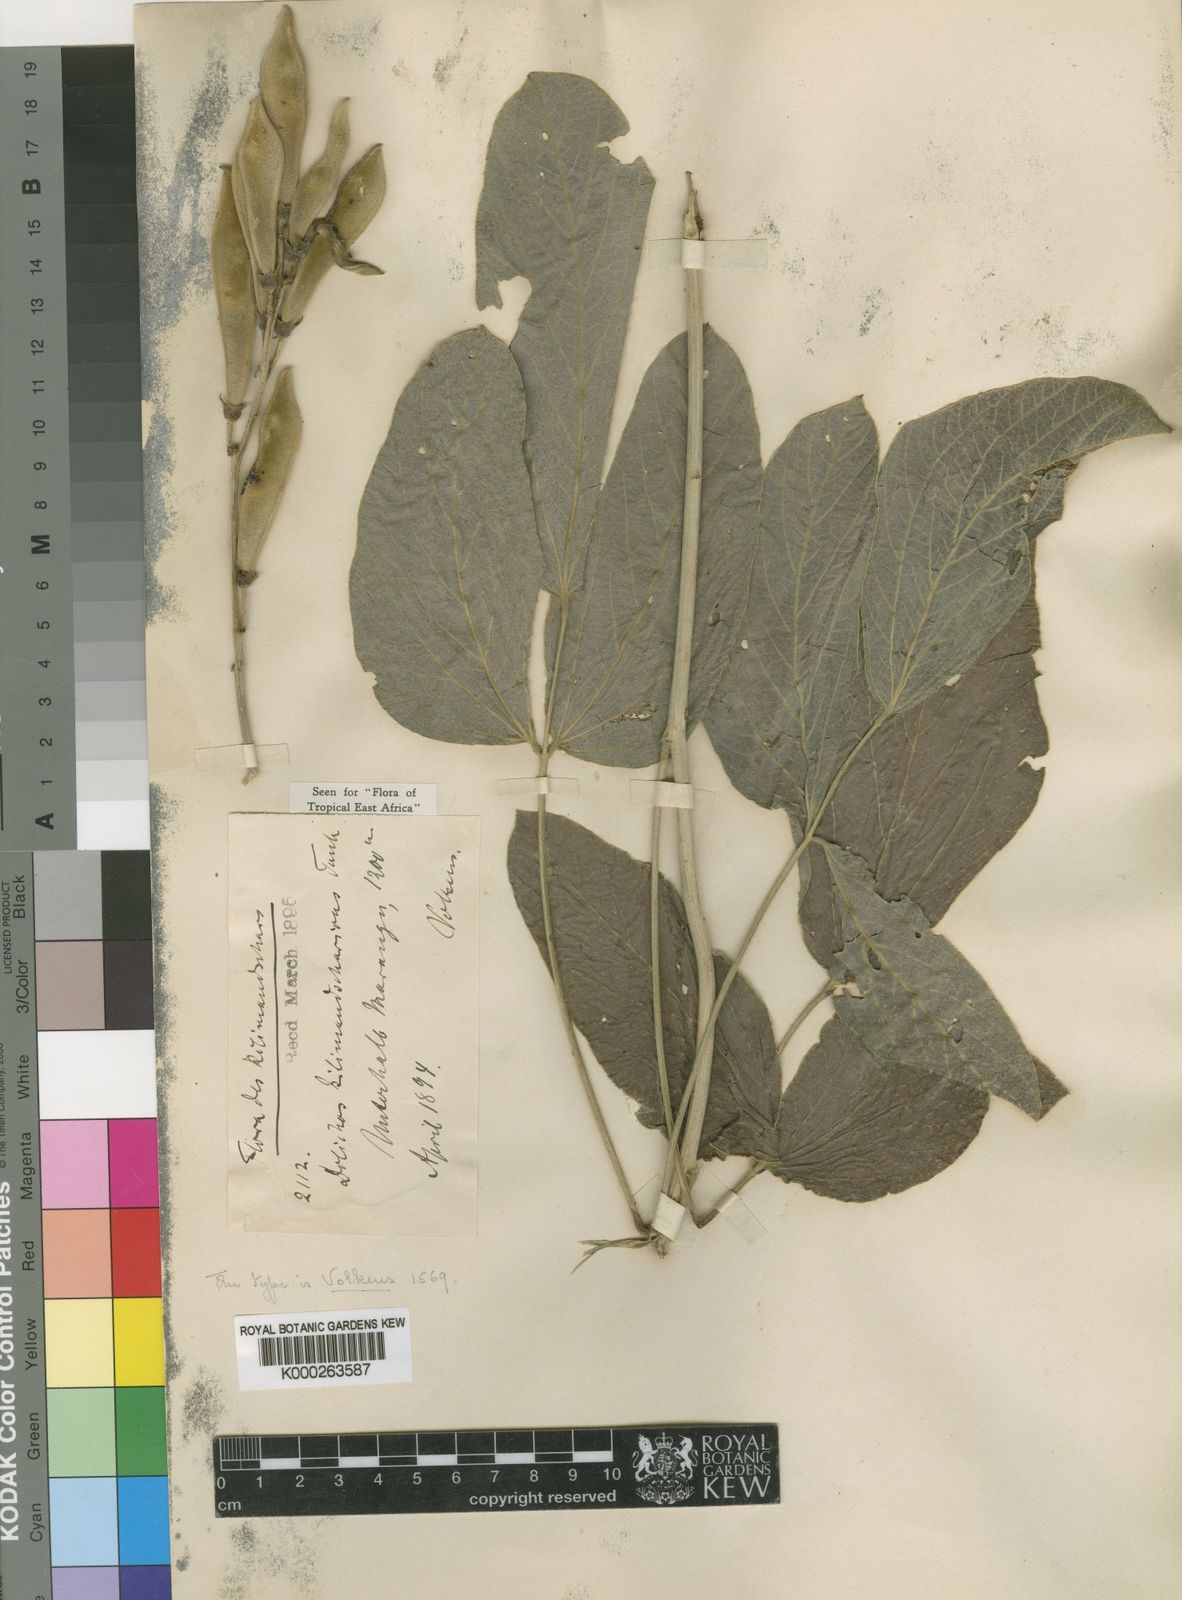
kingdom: Plantae
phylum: Tracheophyta
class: Magnoliopsida
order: Fabales
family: Fabaceae
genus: Dolichos
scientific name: Dolichos kilimandscharicus
